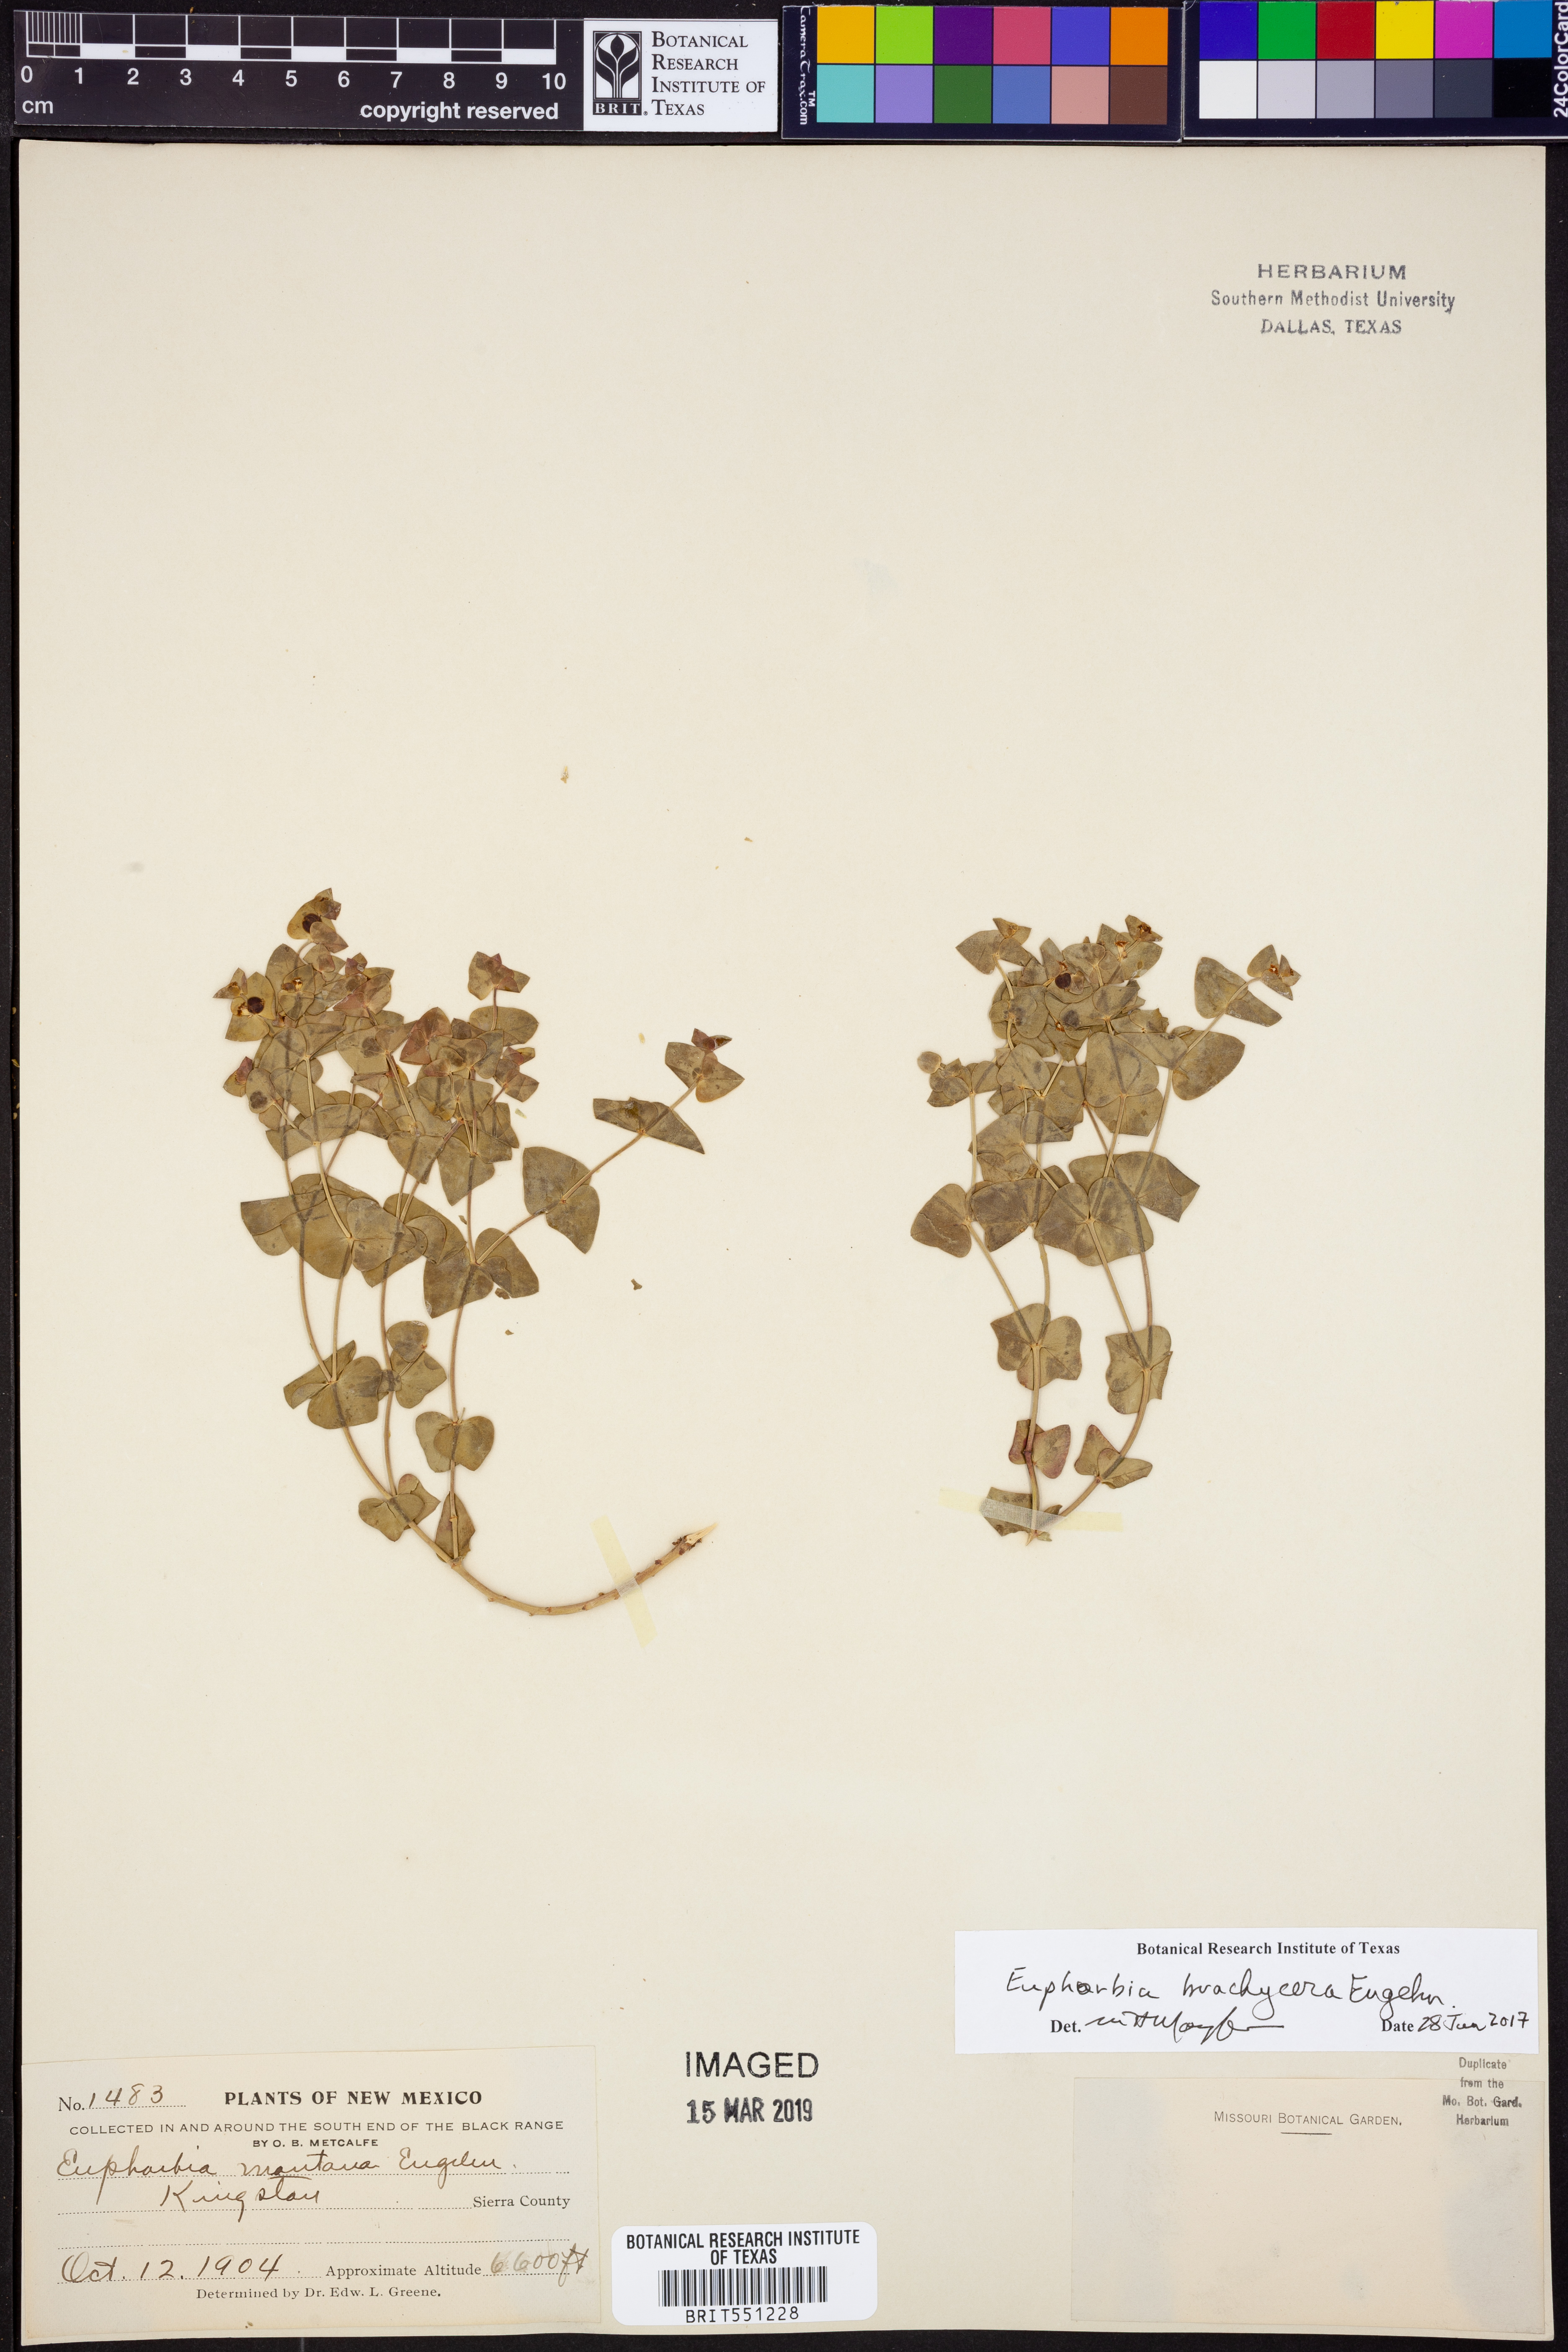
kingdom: Plantae
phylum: Tracheophyta
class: Magnoliopsida
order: Malpighiales
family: Euphorbiaceae
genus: Euphorbia
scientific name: Euphorbia brachycera
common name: Shorthorn spurge
